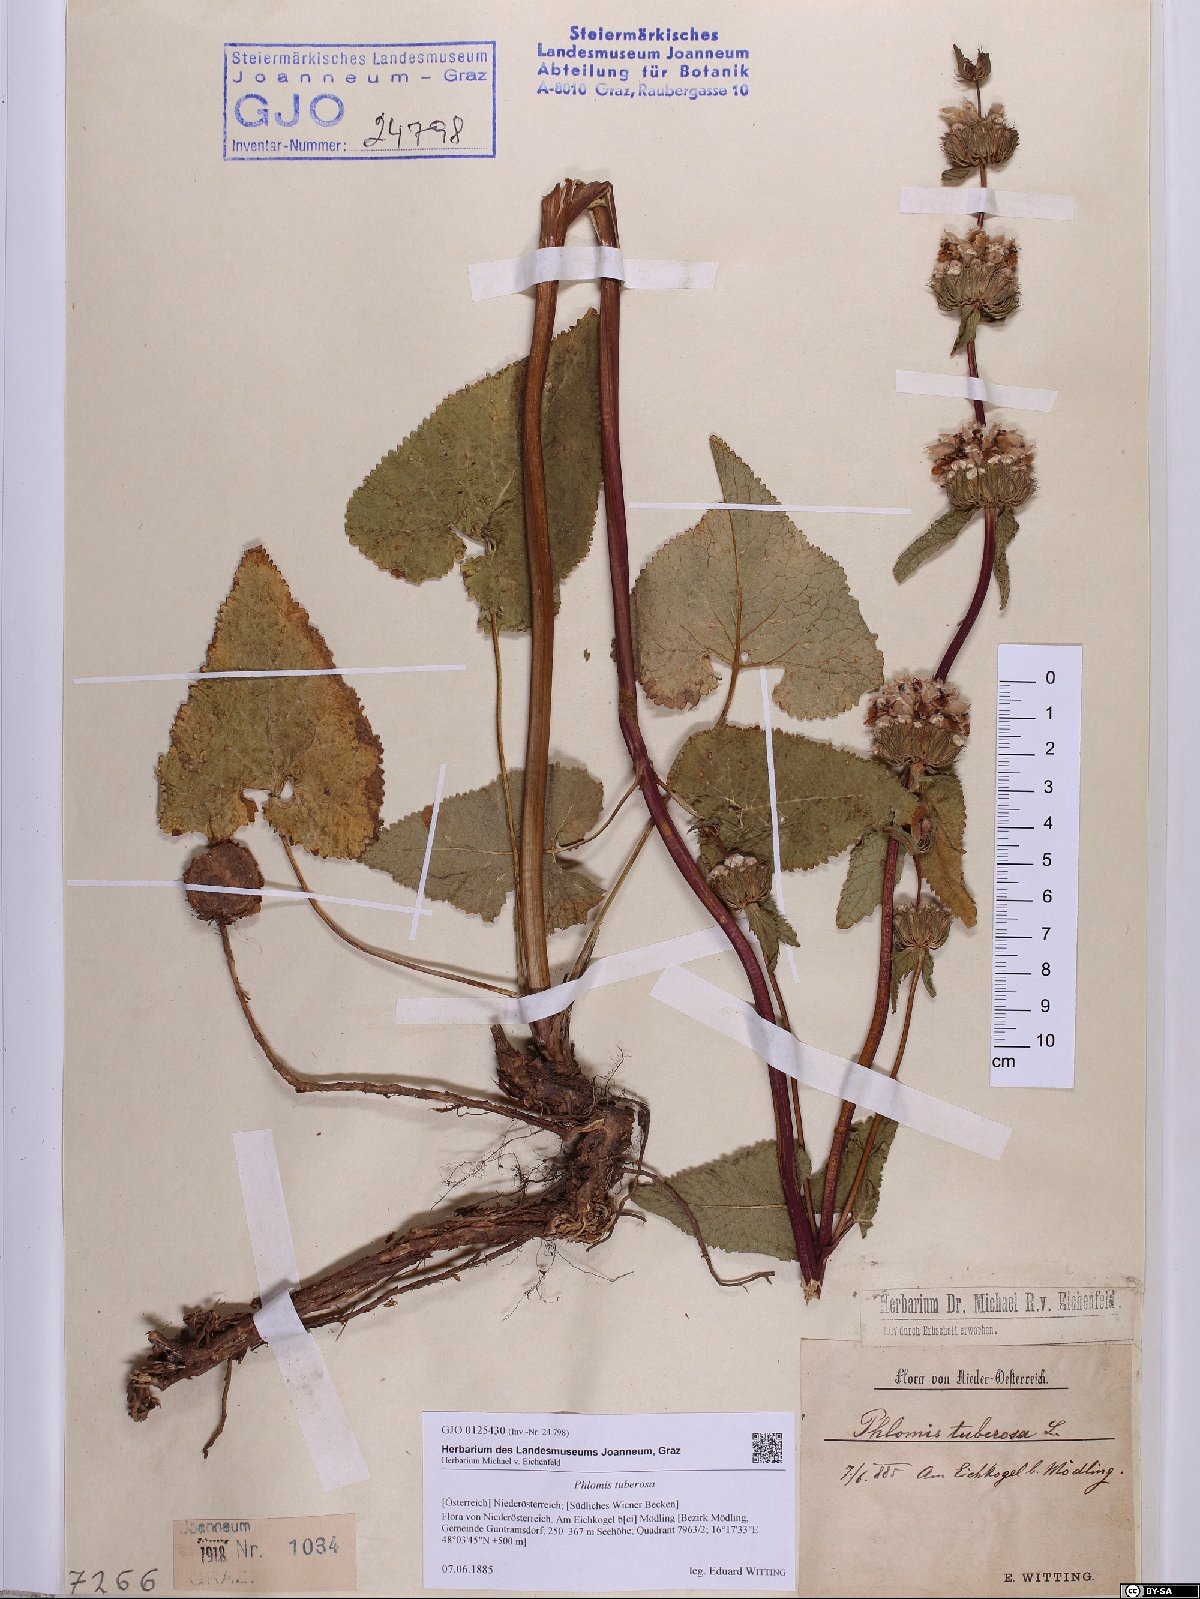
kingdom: Plantae
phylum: Tracheophyta
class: Magnoliopsida
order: Lamiales
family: Lamiaceae
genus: Phlomoides
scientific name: Phlomoides tuberosa
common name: Tuberous jerusalem sage
